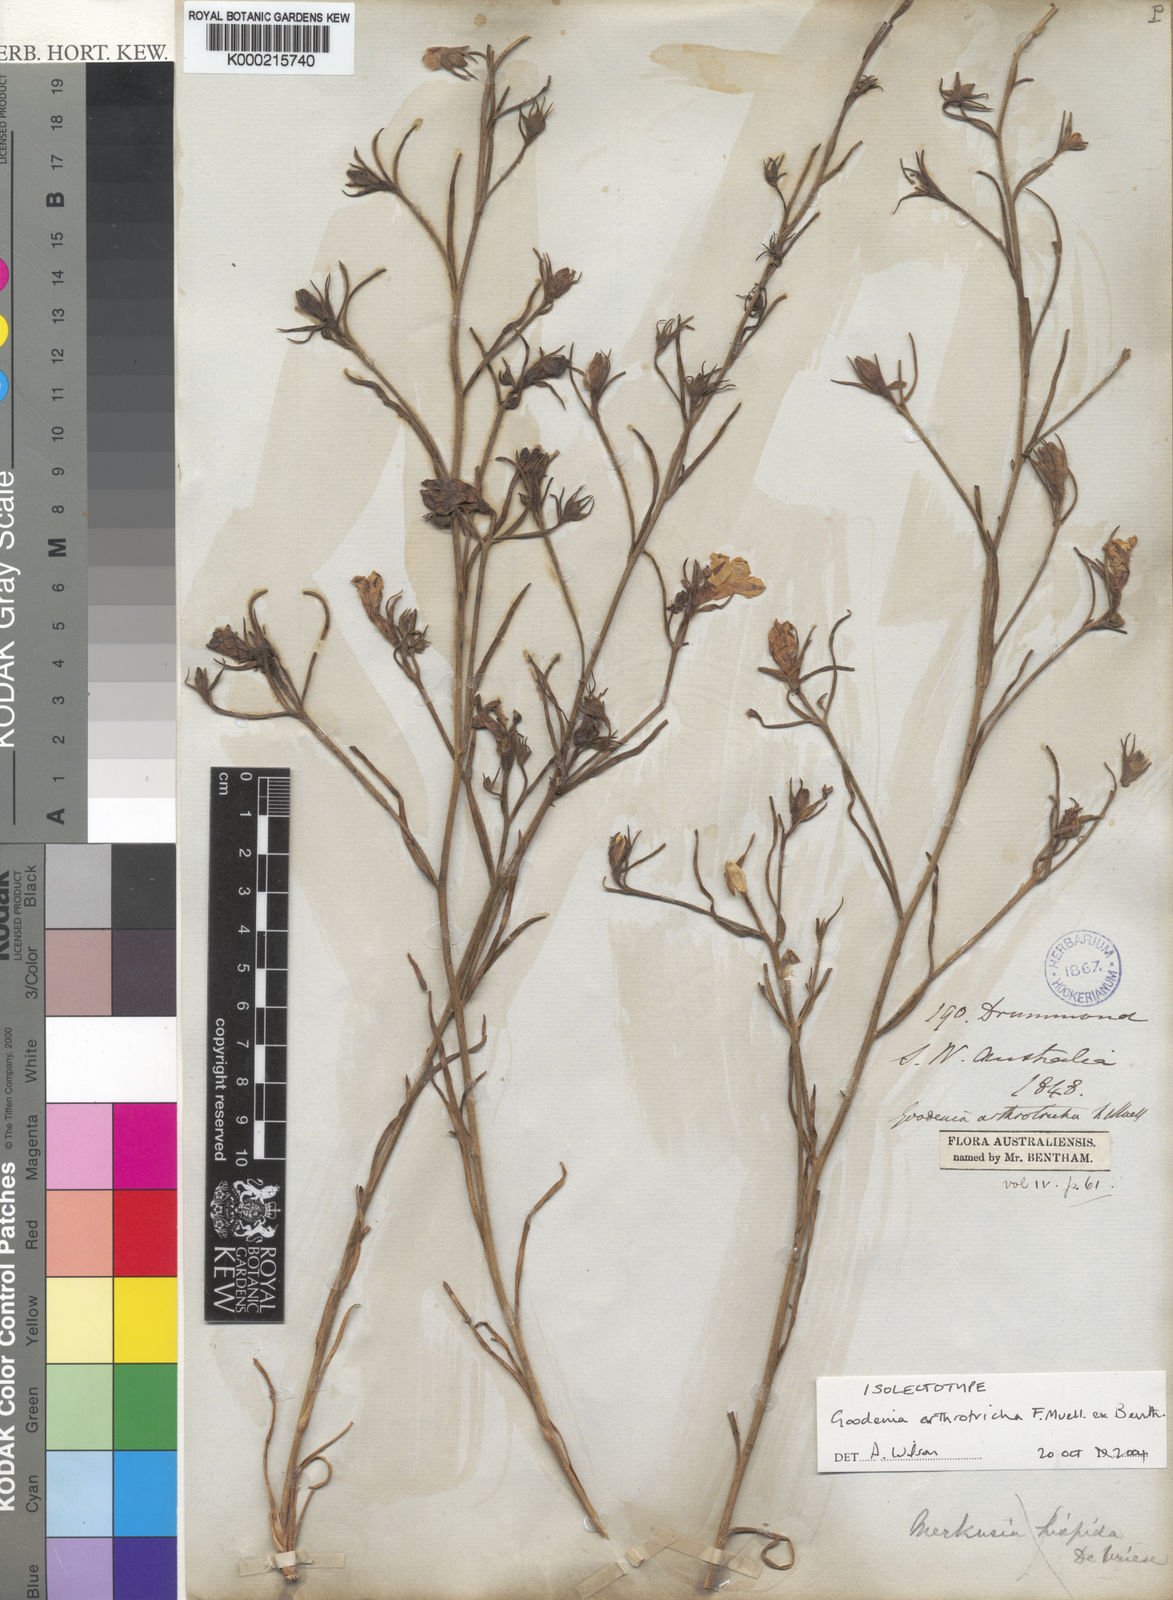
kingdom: Plantae
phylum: Tracheophyta
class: Magnoliopsida
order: Asterales
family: Goodeniaceae
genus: Goodenia
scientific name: Goodenia arthrotricha
